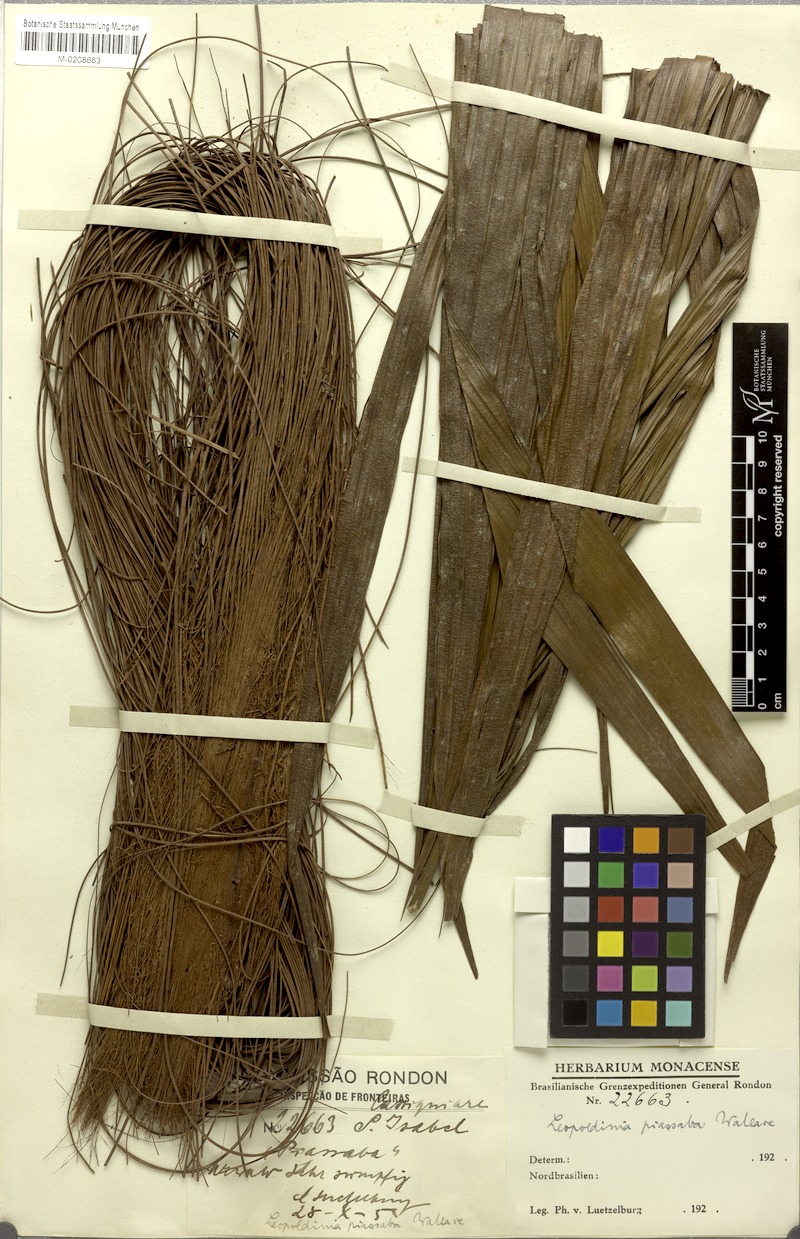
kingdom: Plantae
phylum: Tracheophyta
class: Liliopsida
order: Arecales
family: Arecaceae
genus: Leopoldinia
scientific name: Leopoldinia piassaba
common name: Piassaba
